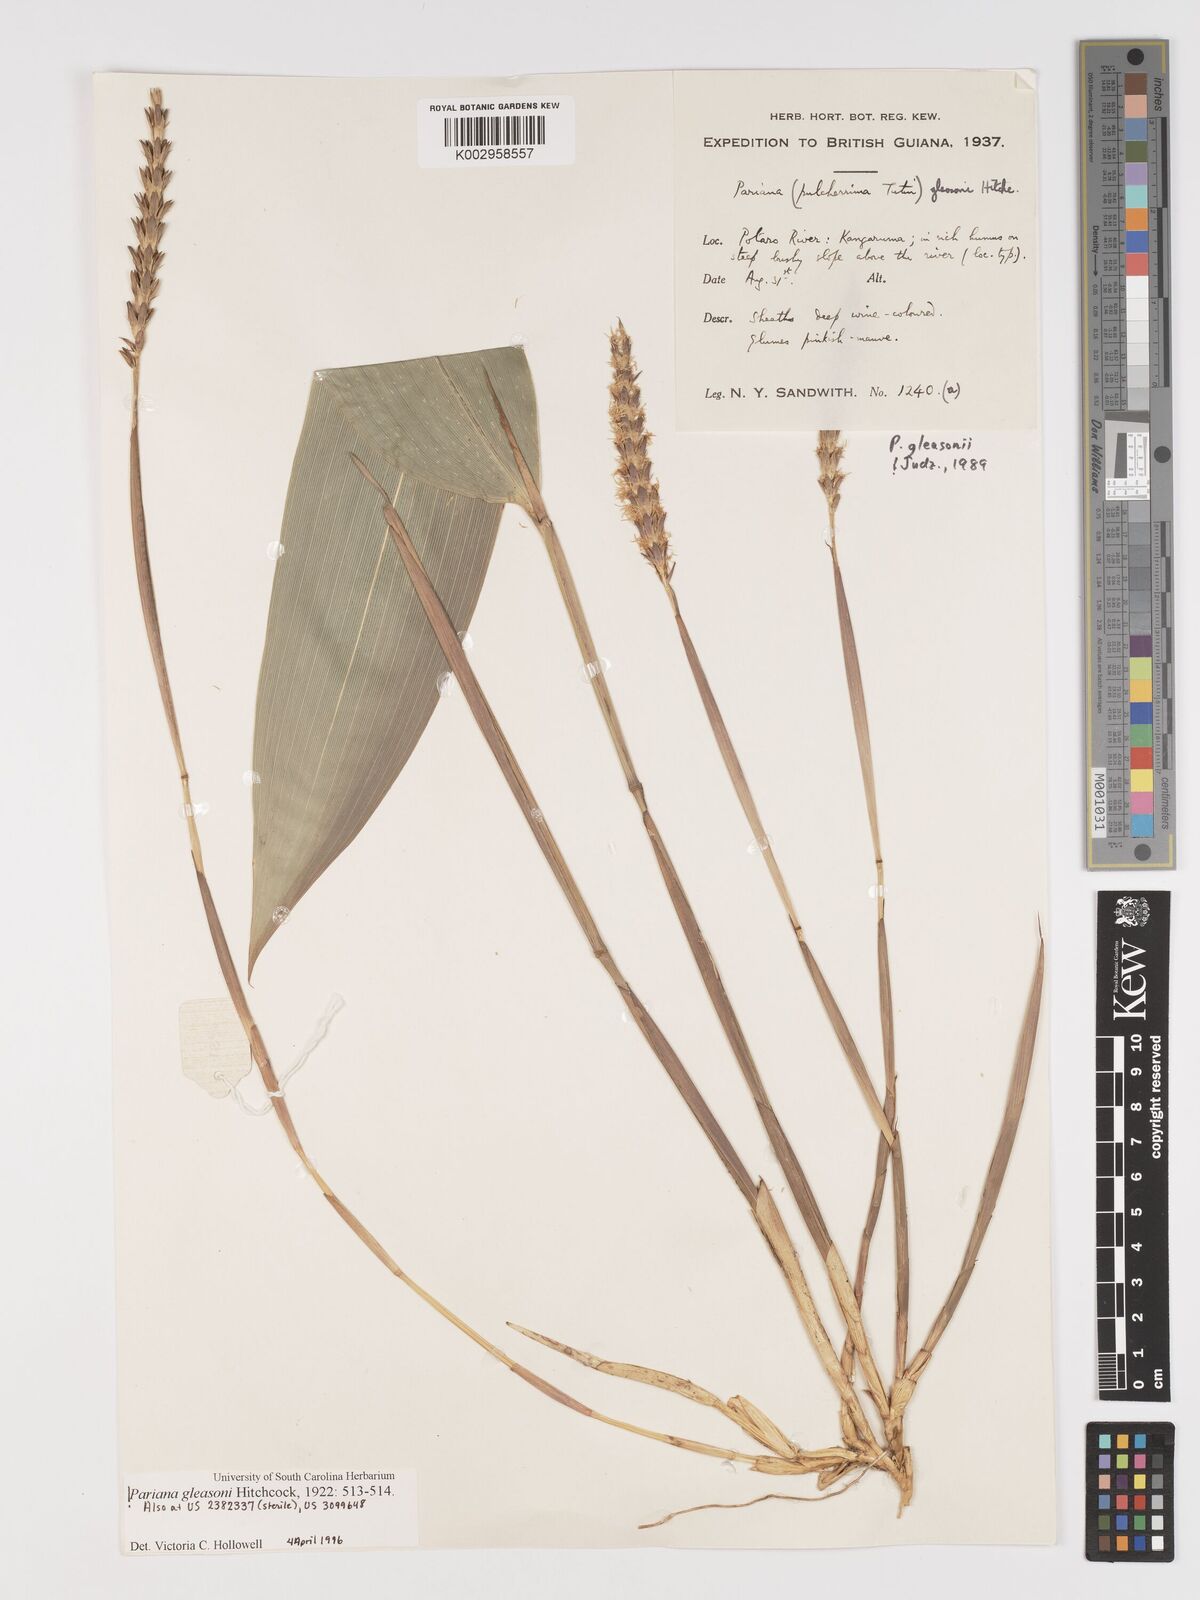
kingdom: Plantae
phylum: Tracheophyta
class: Liliopsida
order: Poales
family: Poaceae
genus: Pariana
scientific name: Pariana radiciflora
